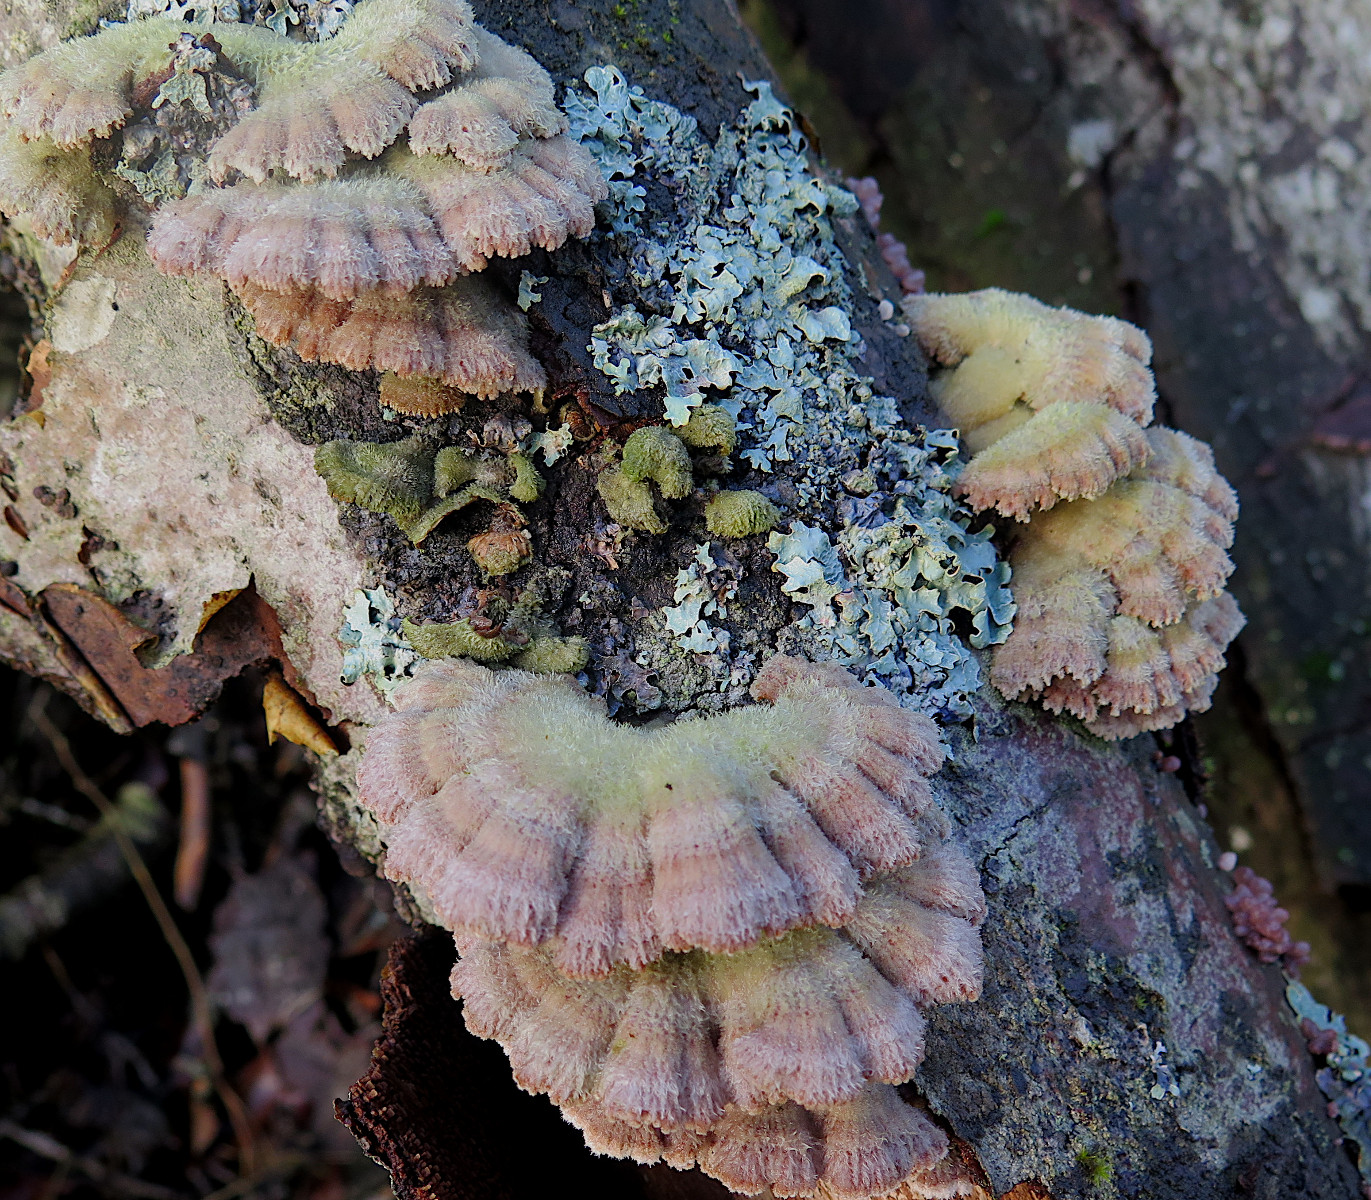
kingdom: Fungi
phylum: Basidiomycota
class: Agaricomycetes
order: Agaricales
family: Schizophyllaceae
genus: Schizophyllum
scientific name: Schizophyllum commune
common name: kløvblad
